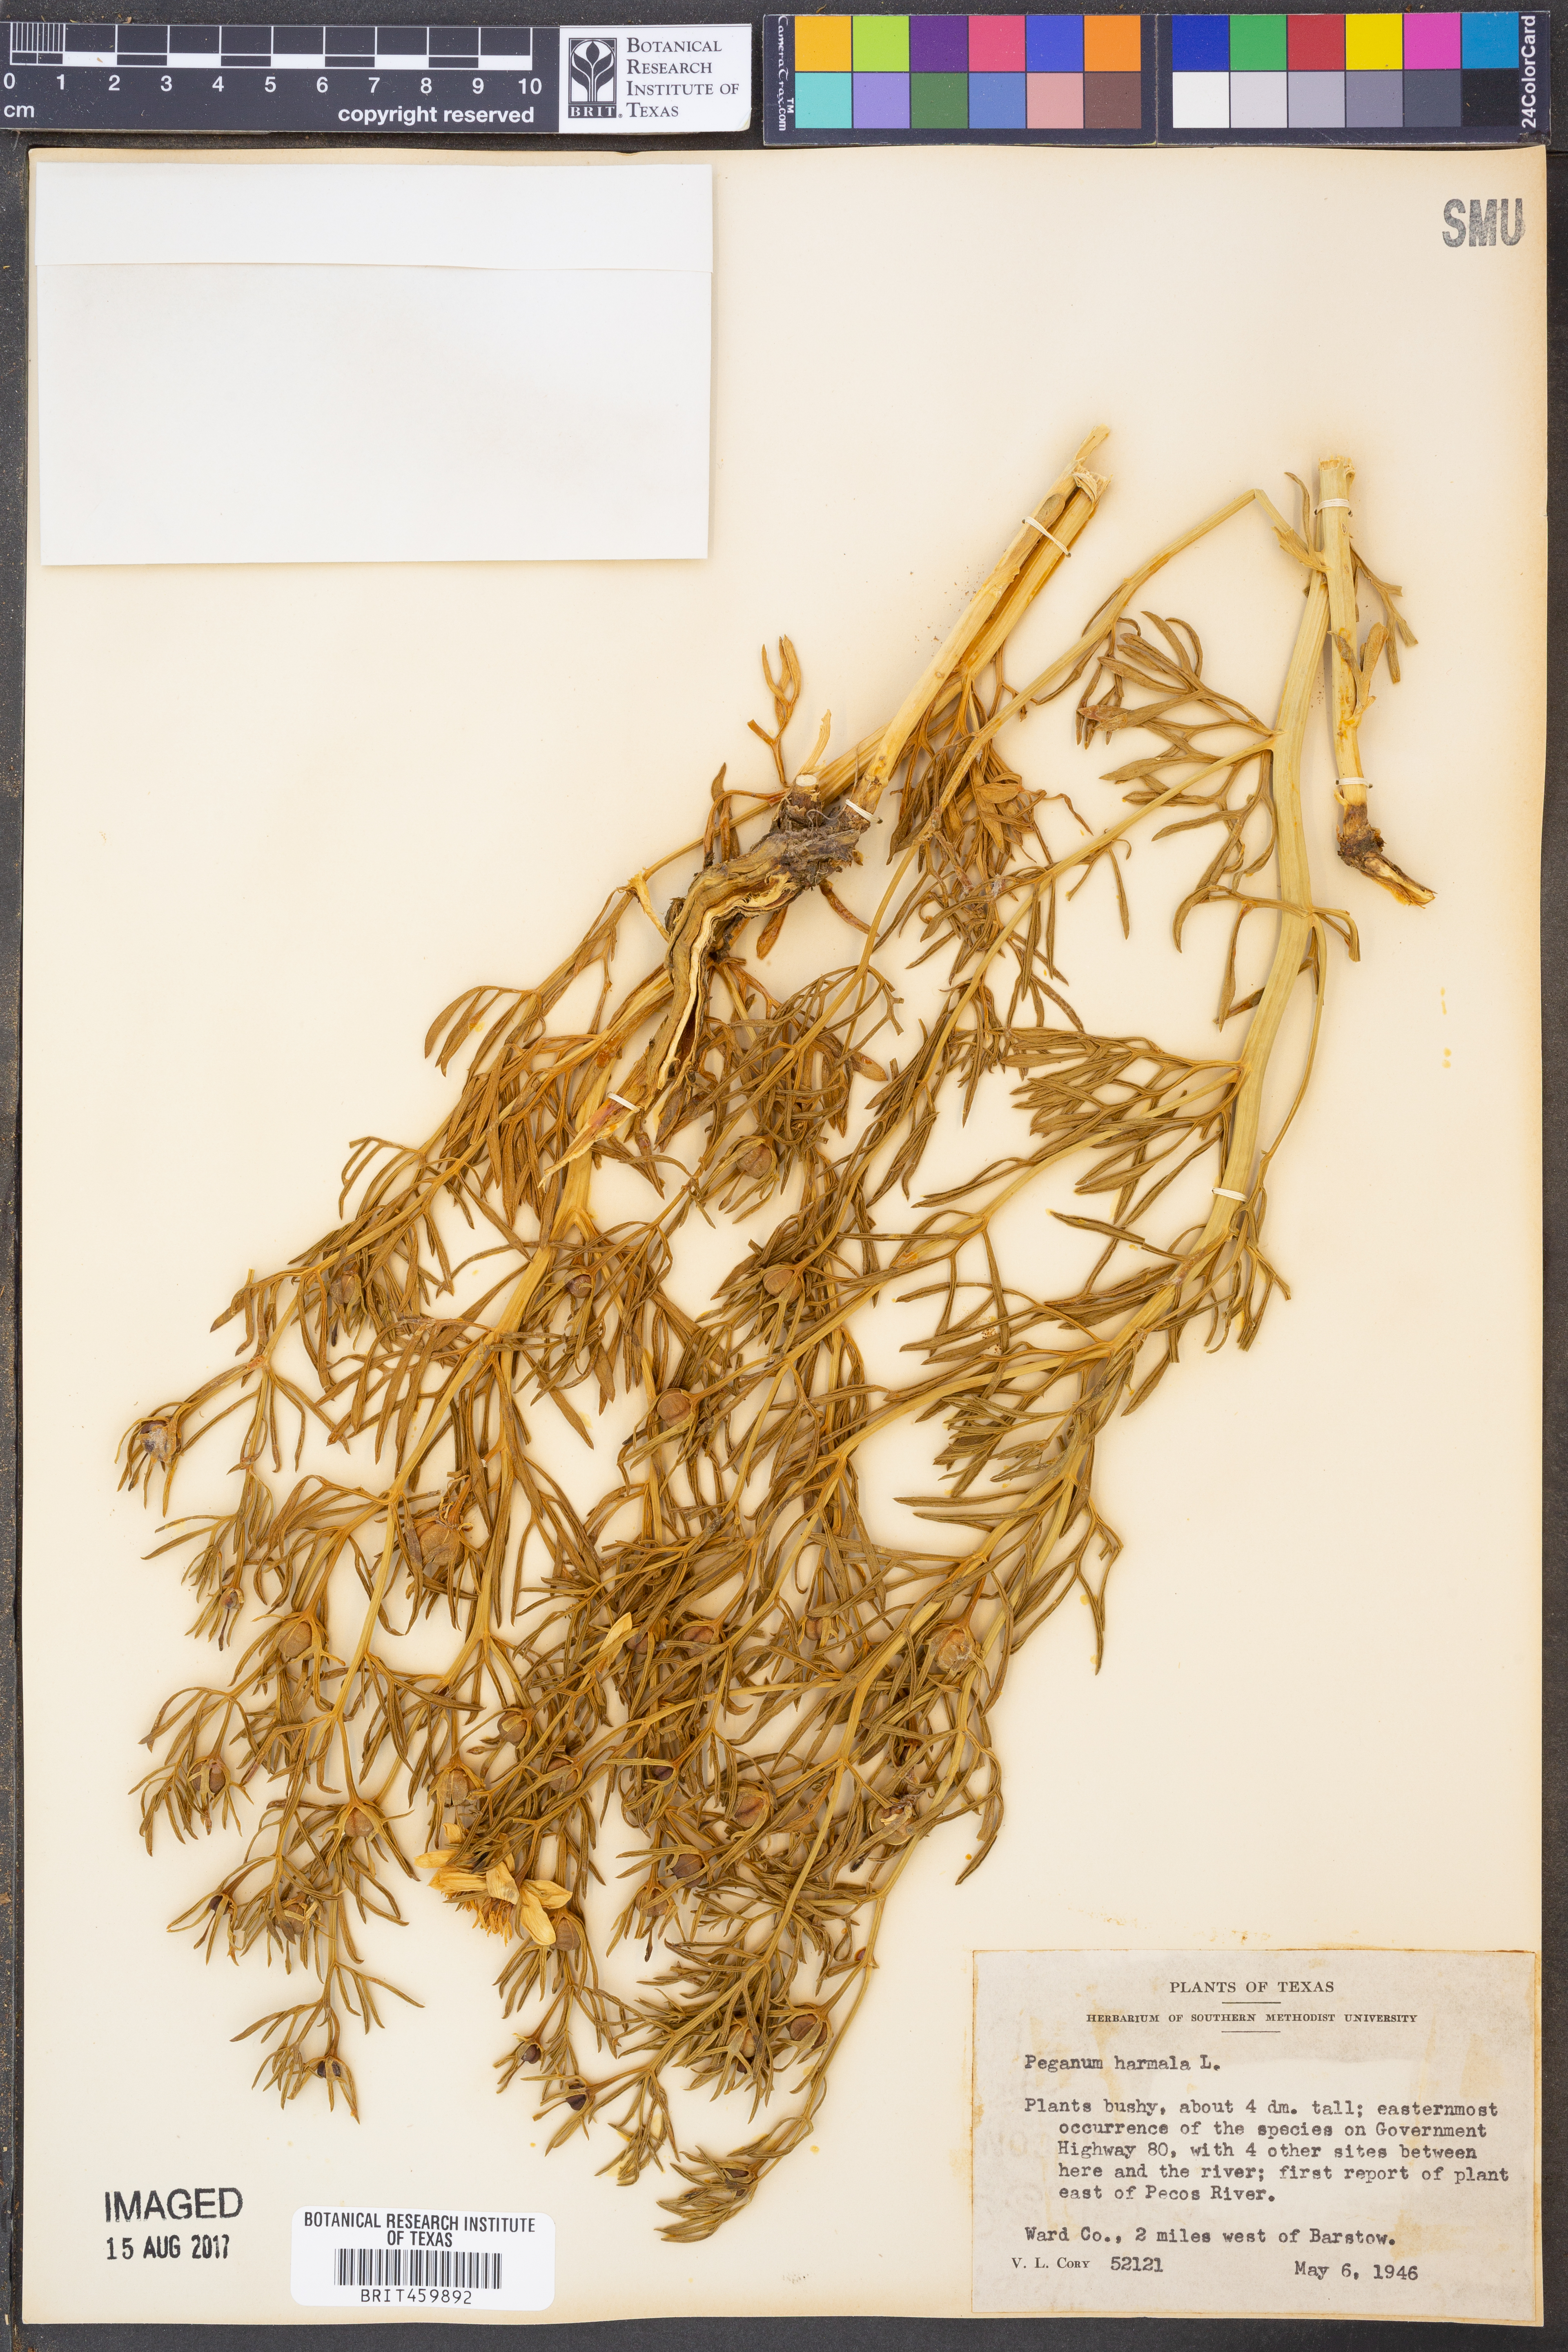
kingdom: Plantae
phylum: Tracheophyta
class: Magnoliopsida
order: Sapindales
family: Tetradiclidaceae
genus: Peganum
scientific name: Peganum harmala
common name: Harmal peganum
